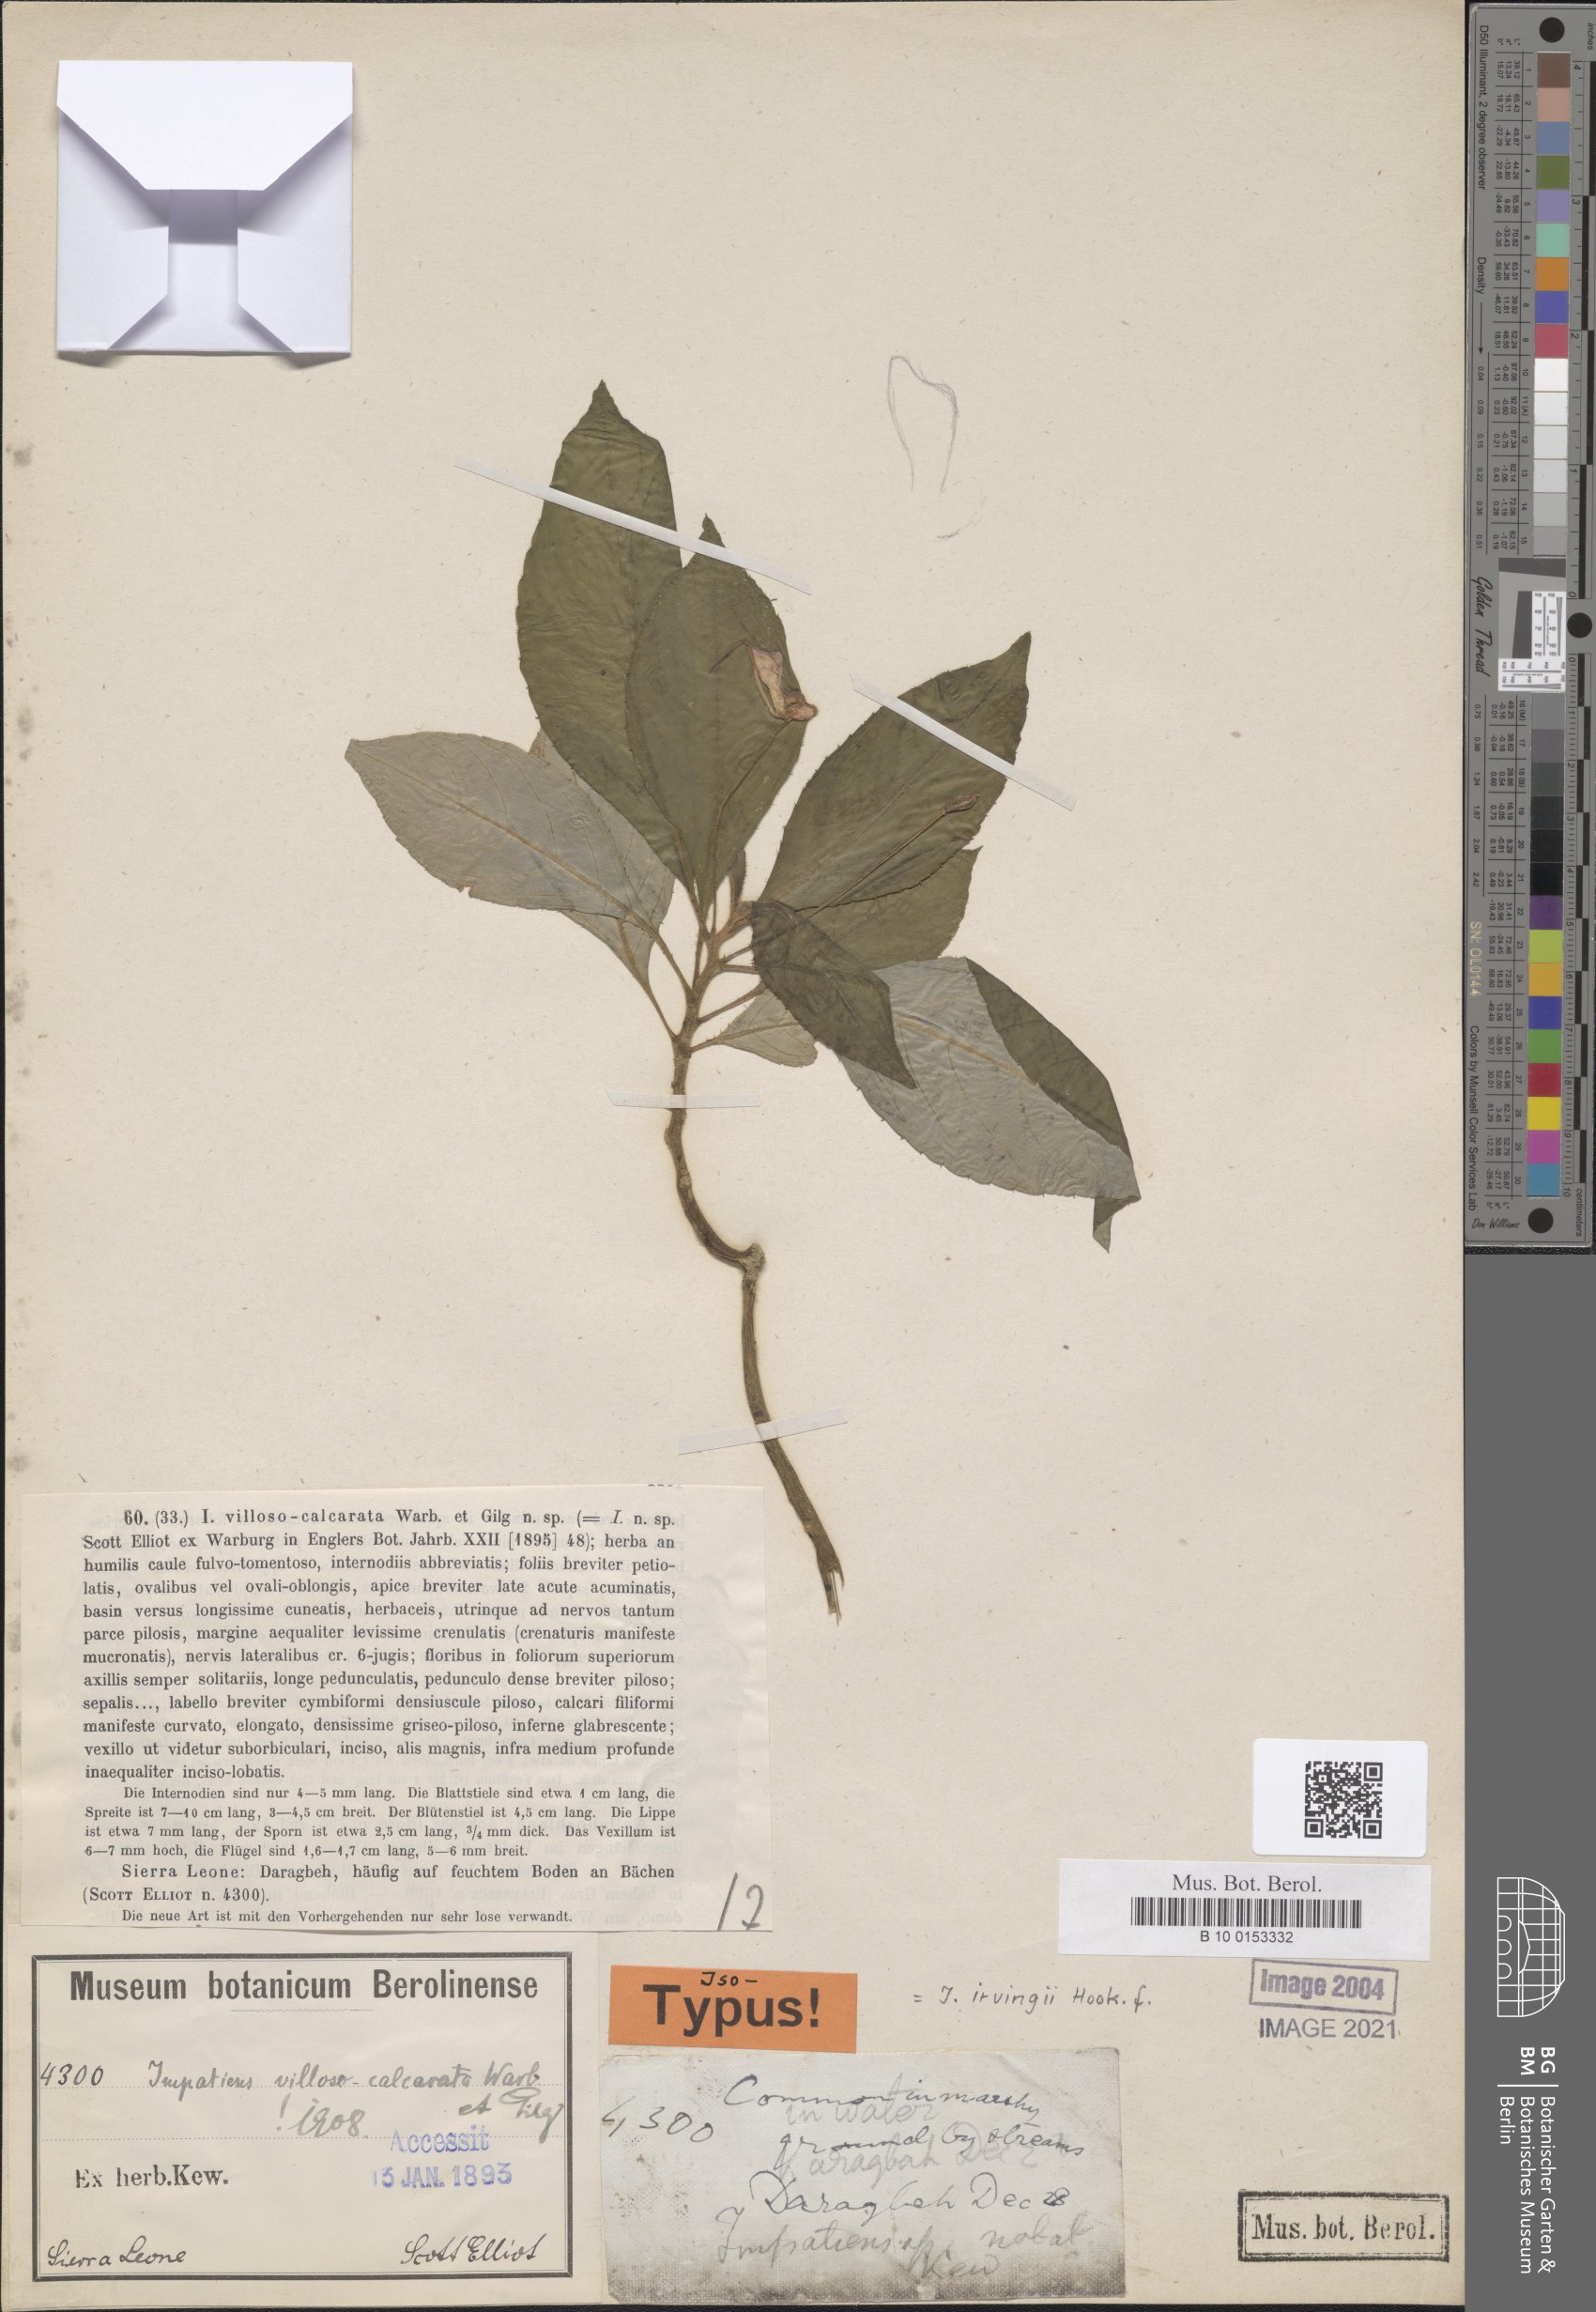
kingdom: Plantae
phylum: Tracheophyta
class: Magnoliopsida
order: Ericales
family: Balsaminaceae
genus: Impatiens
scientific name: Impatiens irvingii
